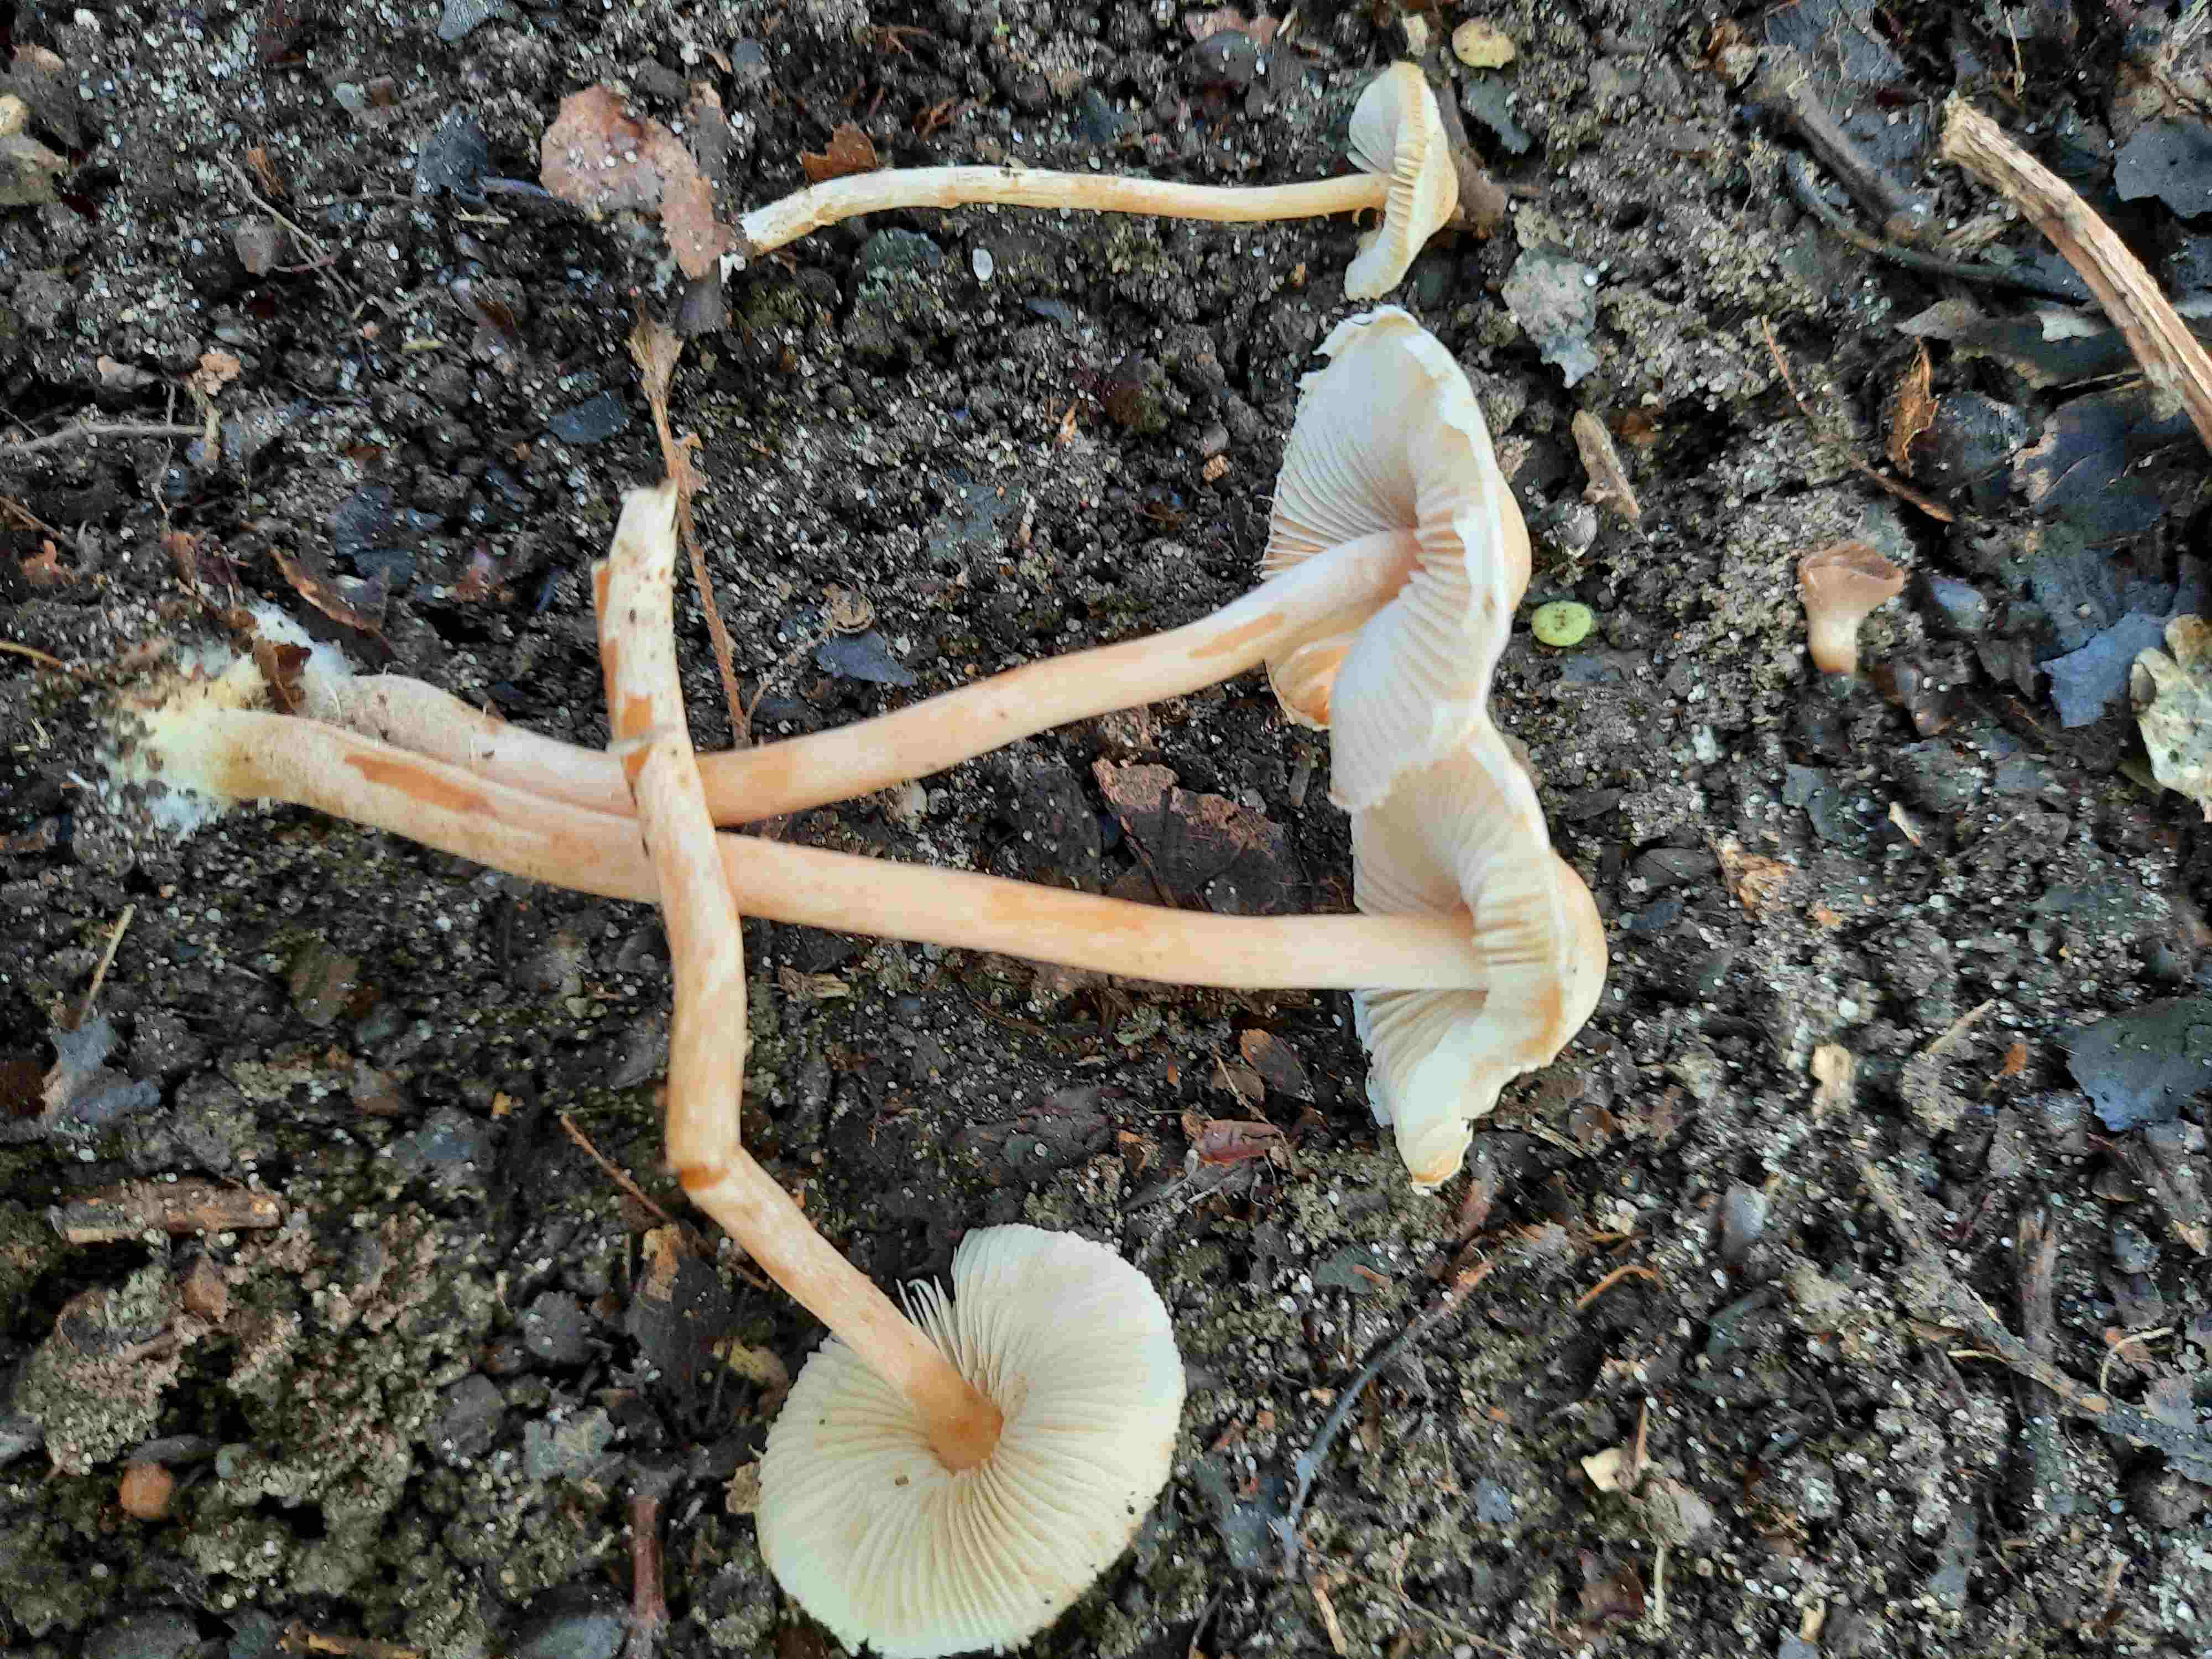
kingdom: Fungi
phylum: Basidiomycota
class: Agaricomycetes
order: Agaricales
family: Agaricaceae
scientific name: Agaricaceae
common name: champignonfamilien
